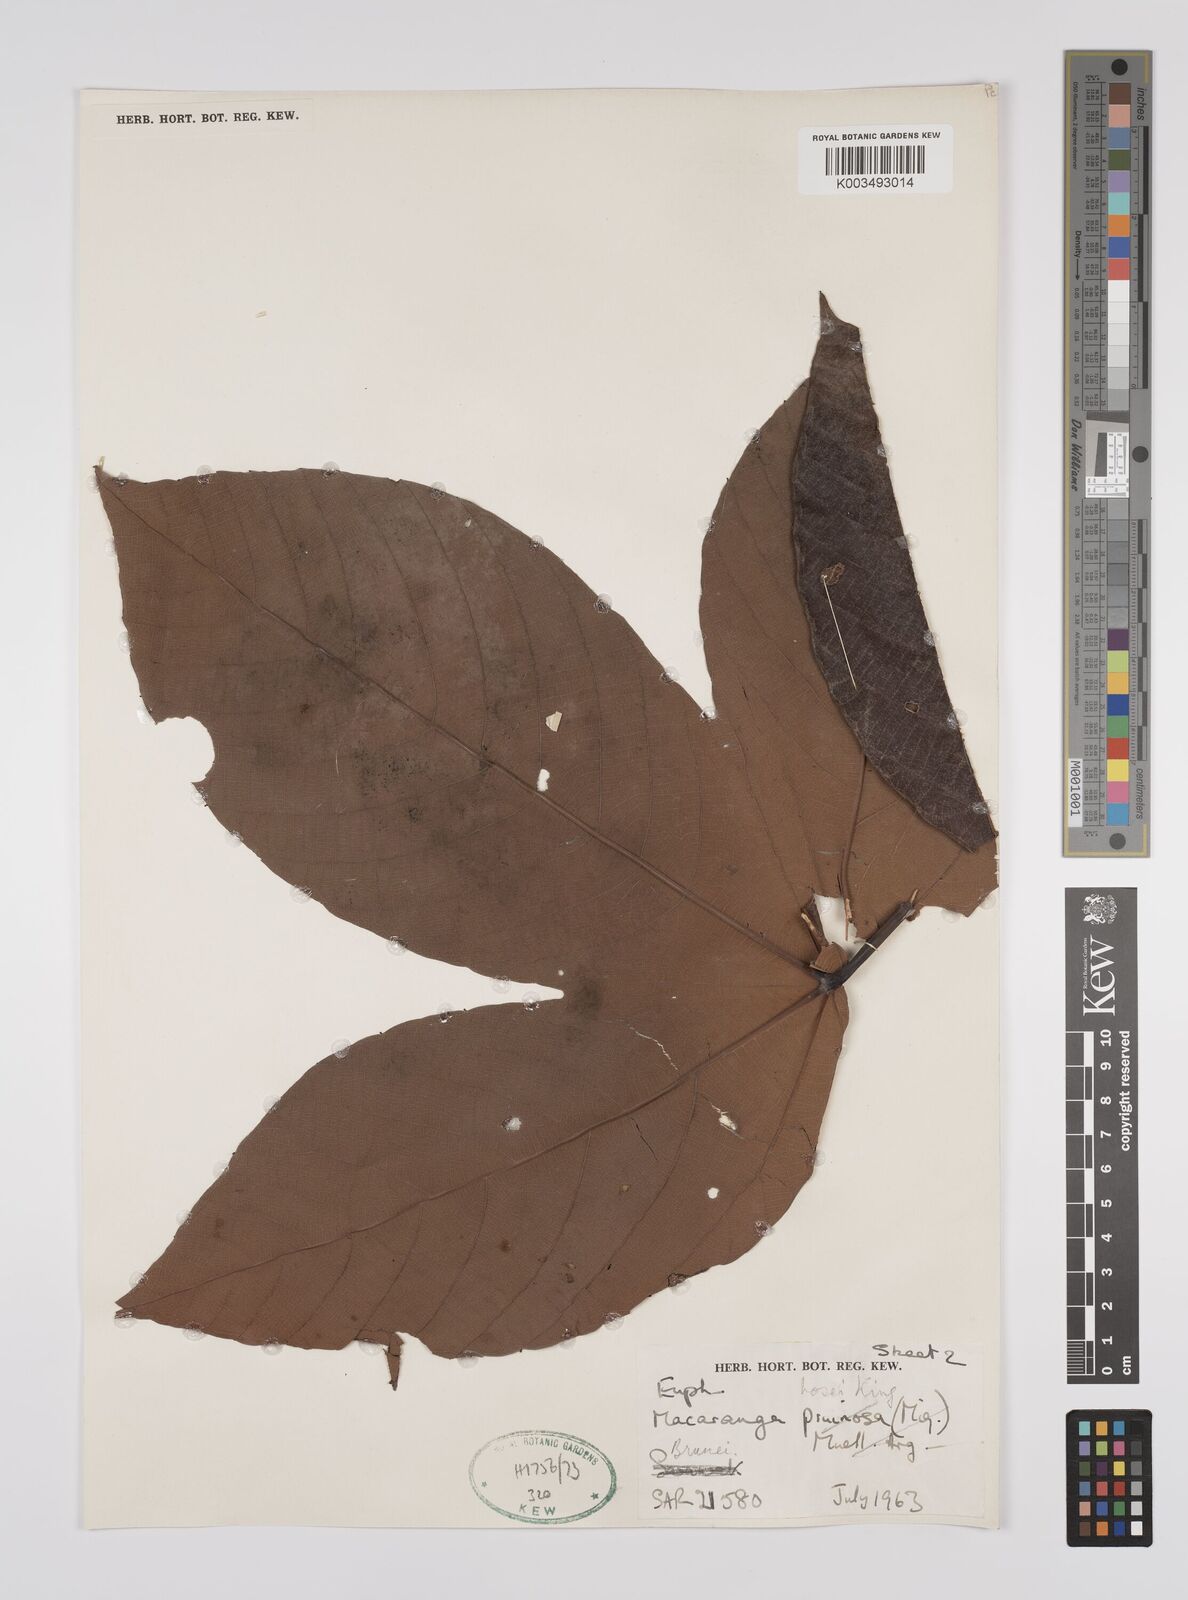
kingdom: Plantae
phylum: Tracheophyta
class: Magnoliopsida
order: Malpighiales
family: Euphorbiaceae
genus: Macaranga
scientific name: Macaranga hosei
